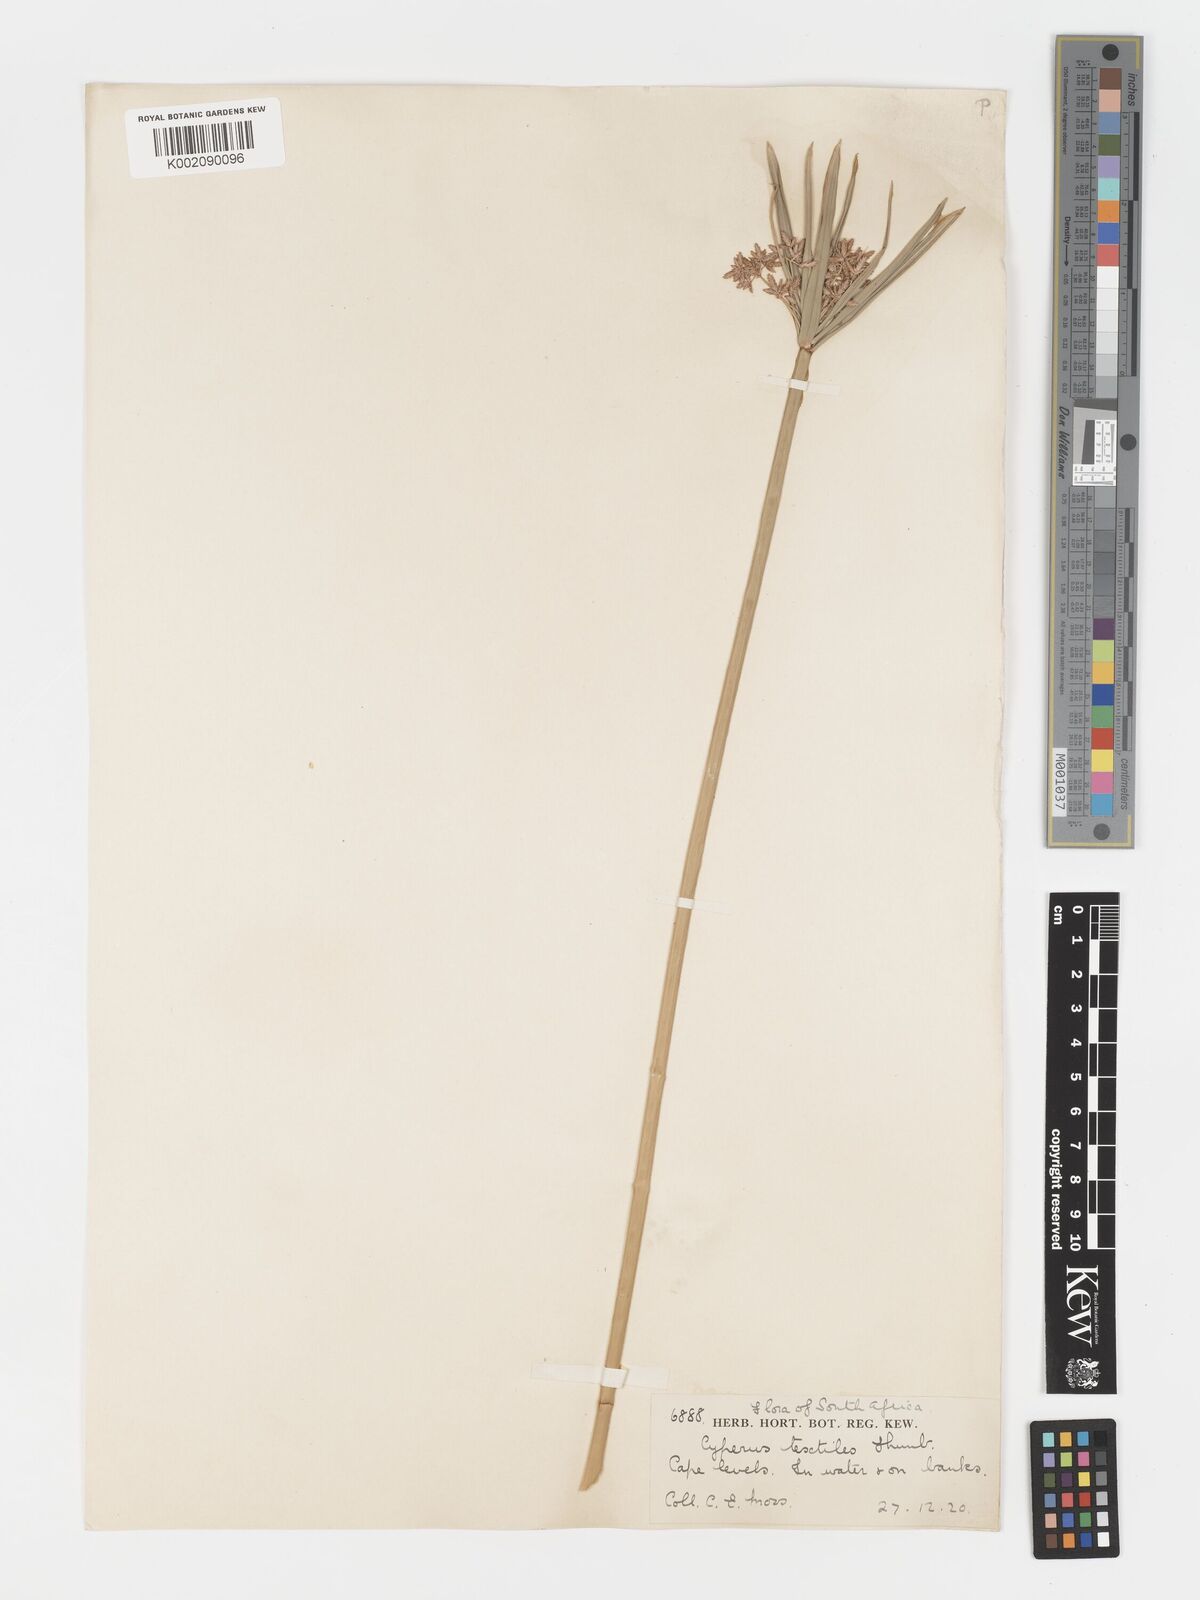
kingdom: Plantae
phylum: Tracheophyta
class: Liliopsida
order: Poales
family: Cyperaceae
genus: Cyperus
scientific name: Cyperus alternifolius
